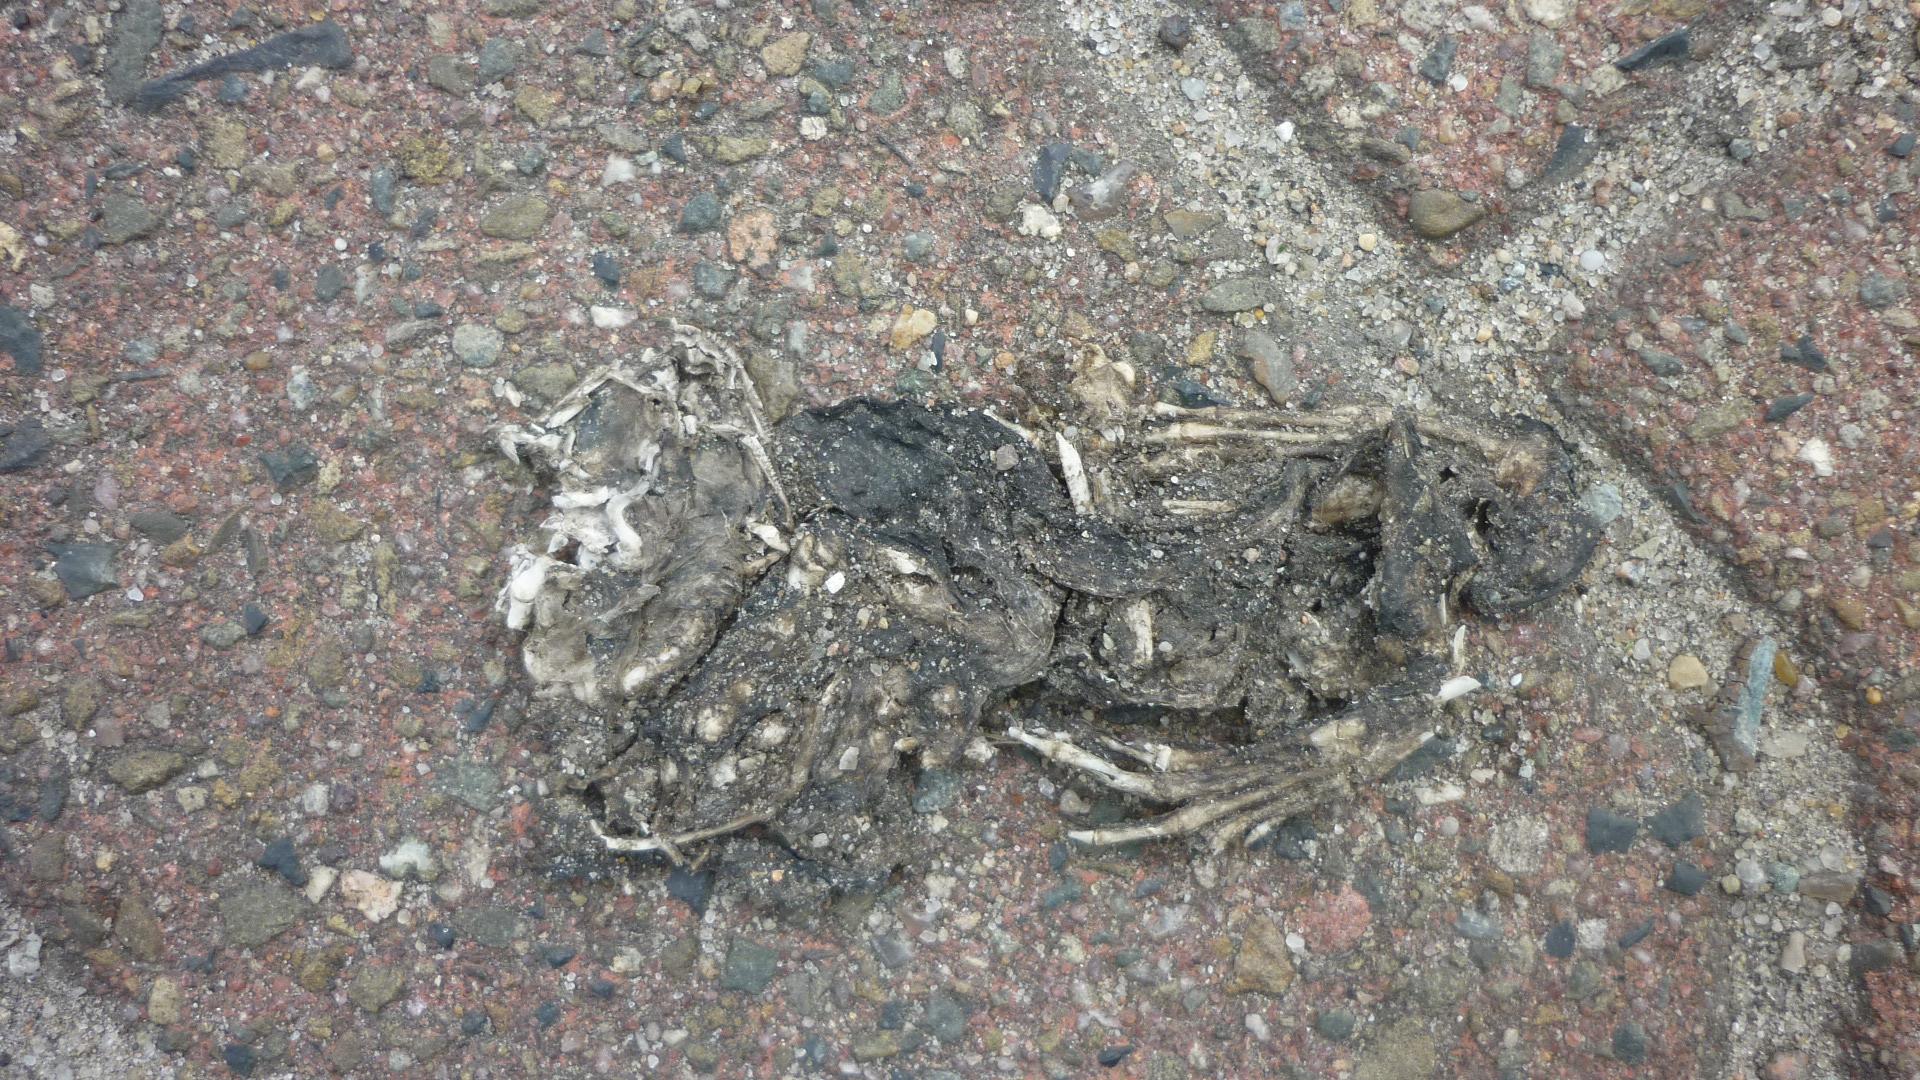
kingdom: Animalia
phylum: Chordata
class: Amphibia
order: Anura
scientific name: Anura
